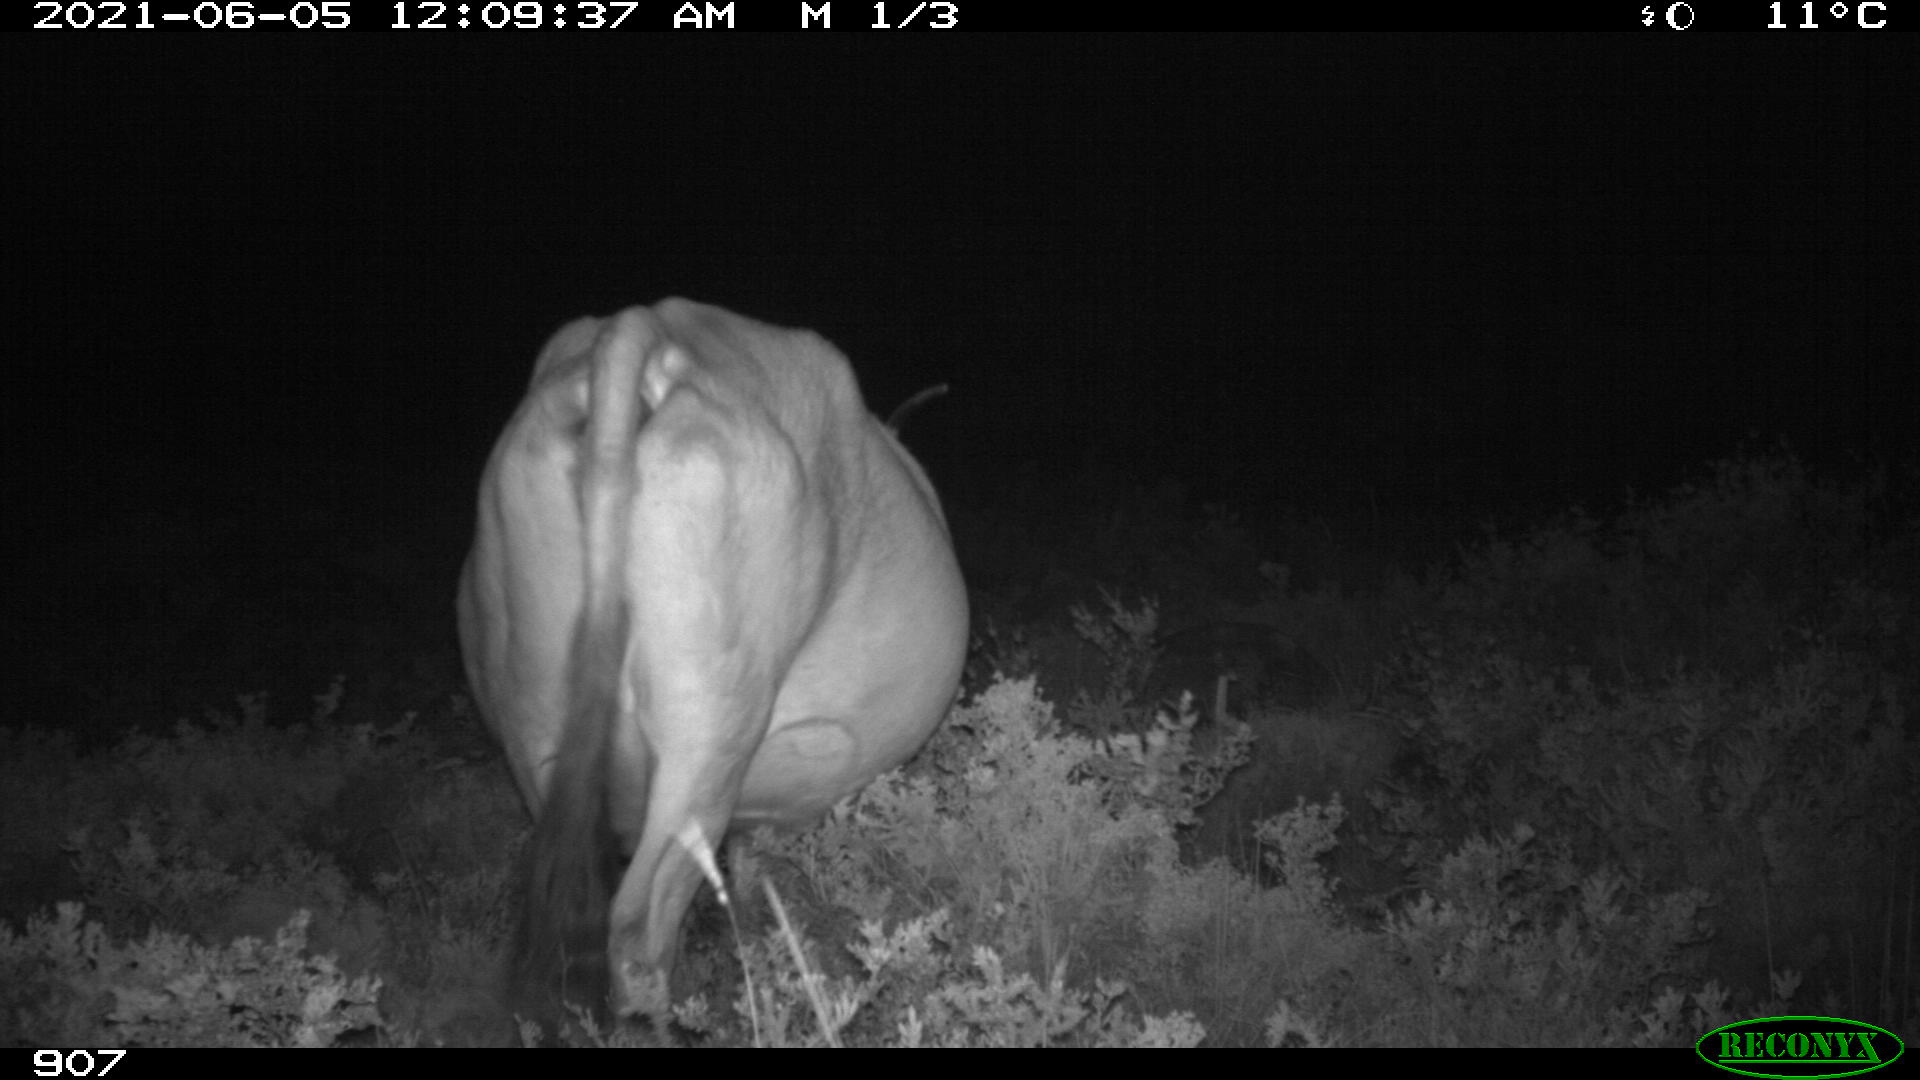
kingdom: Animalia
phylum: Chordata
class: Mammalia
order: Artiodactyla
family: Bovidae
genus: Bos
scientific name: Bos taurus
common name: Domesticated cattle
